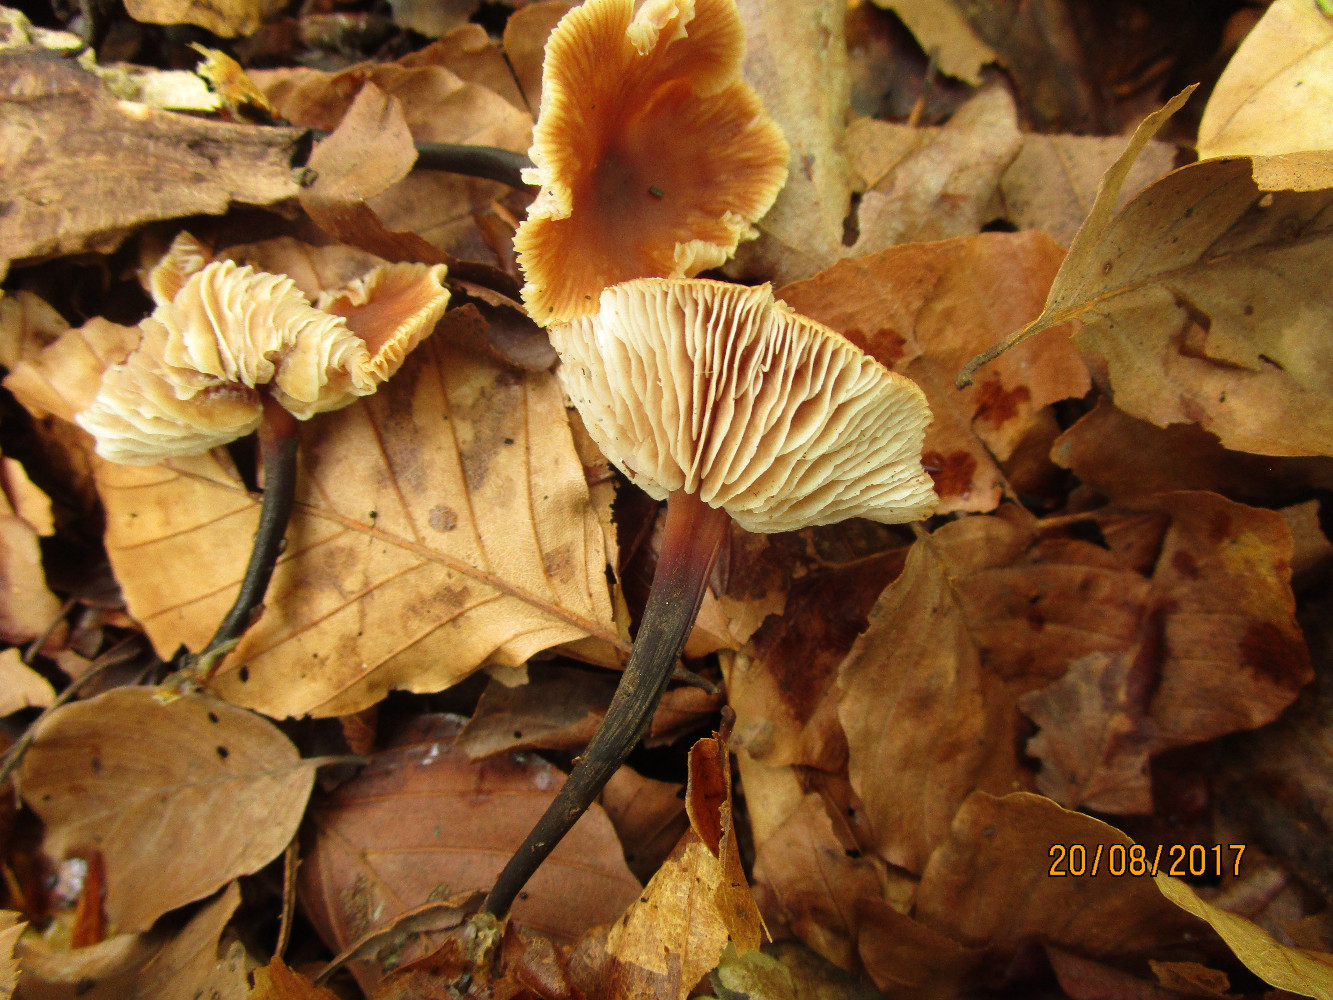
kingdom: Fungi
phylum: Basidiomycota
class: Agaricomycetes
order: Agaricales
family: Omphalotaceae
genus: Gymnopus
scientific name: Gymnopus brassicolens
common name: kål-fladhat
